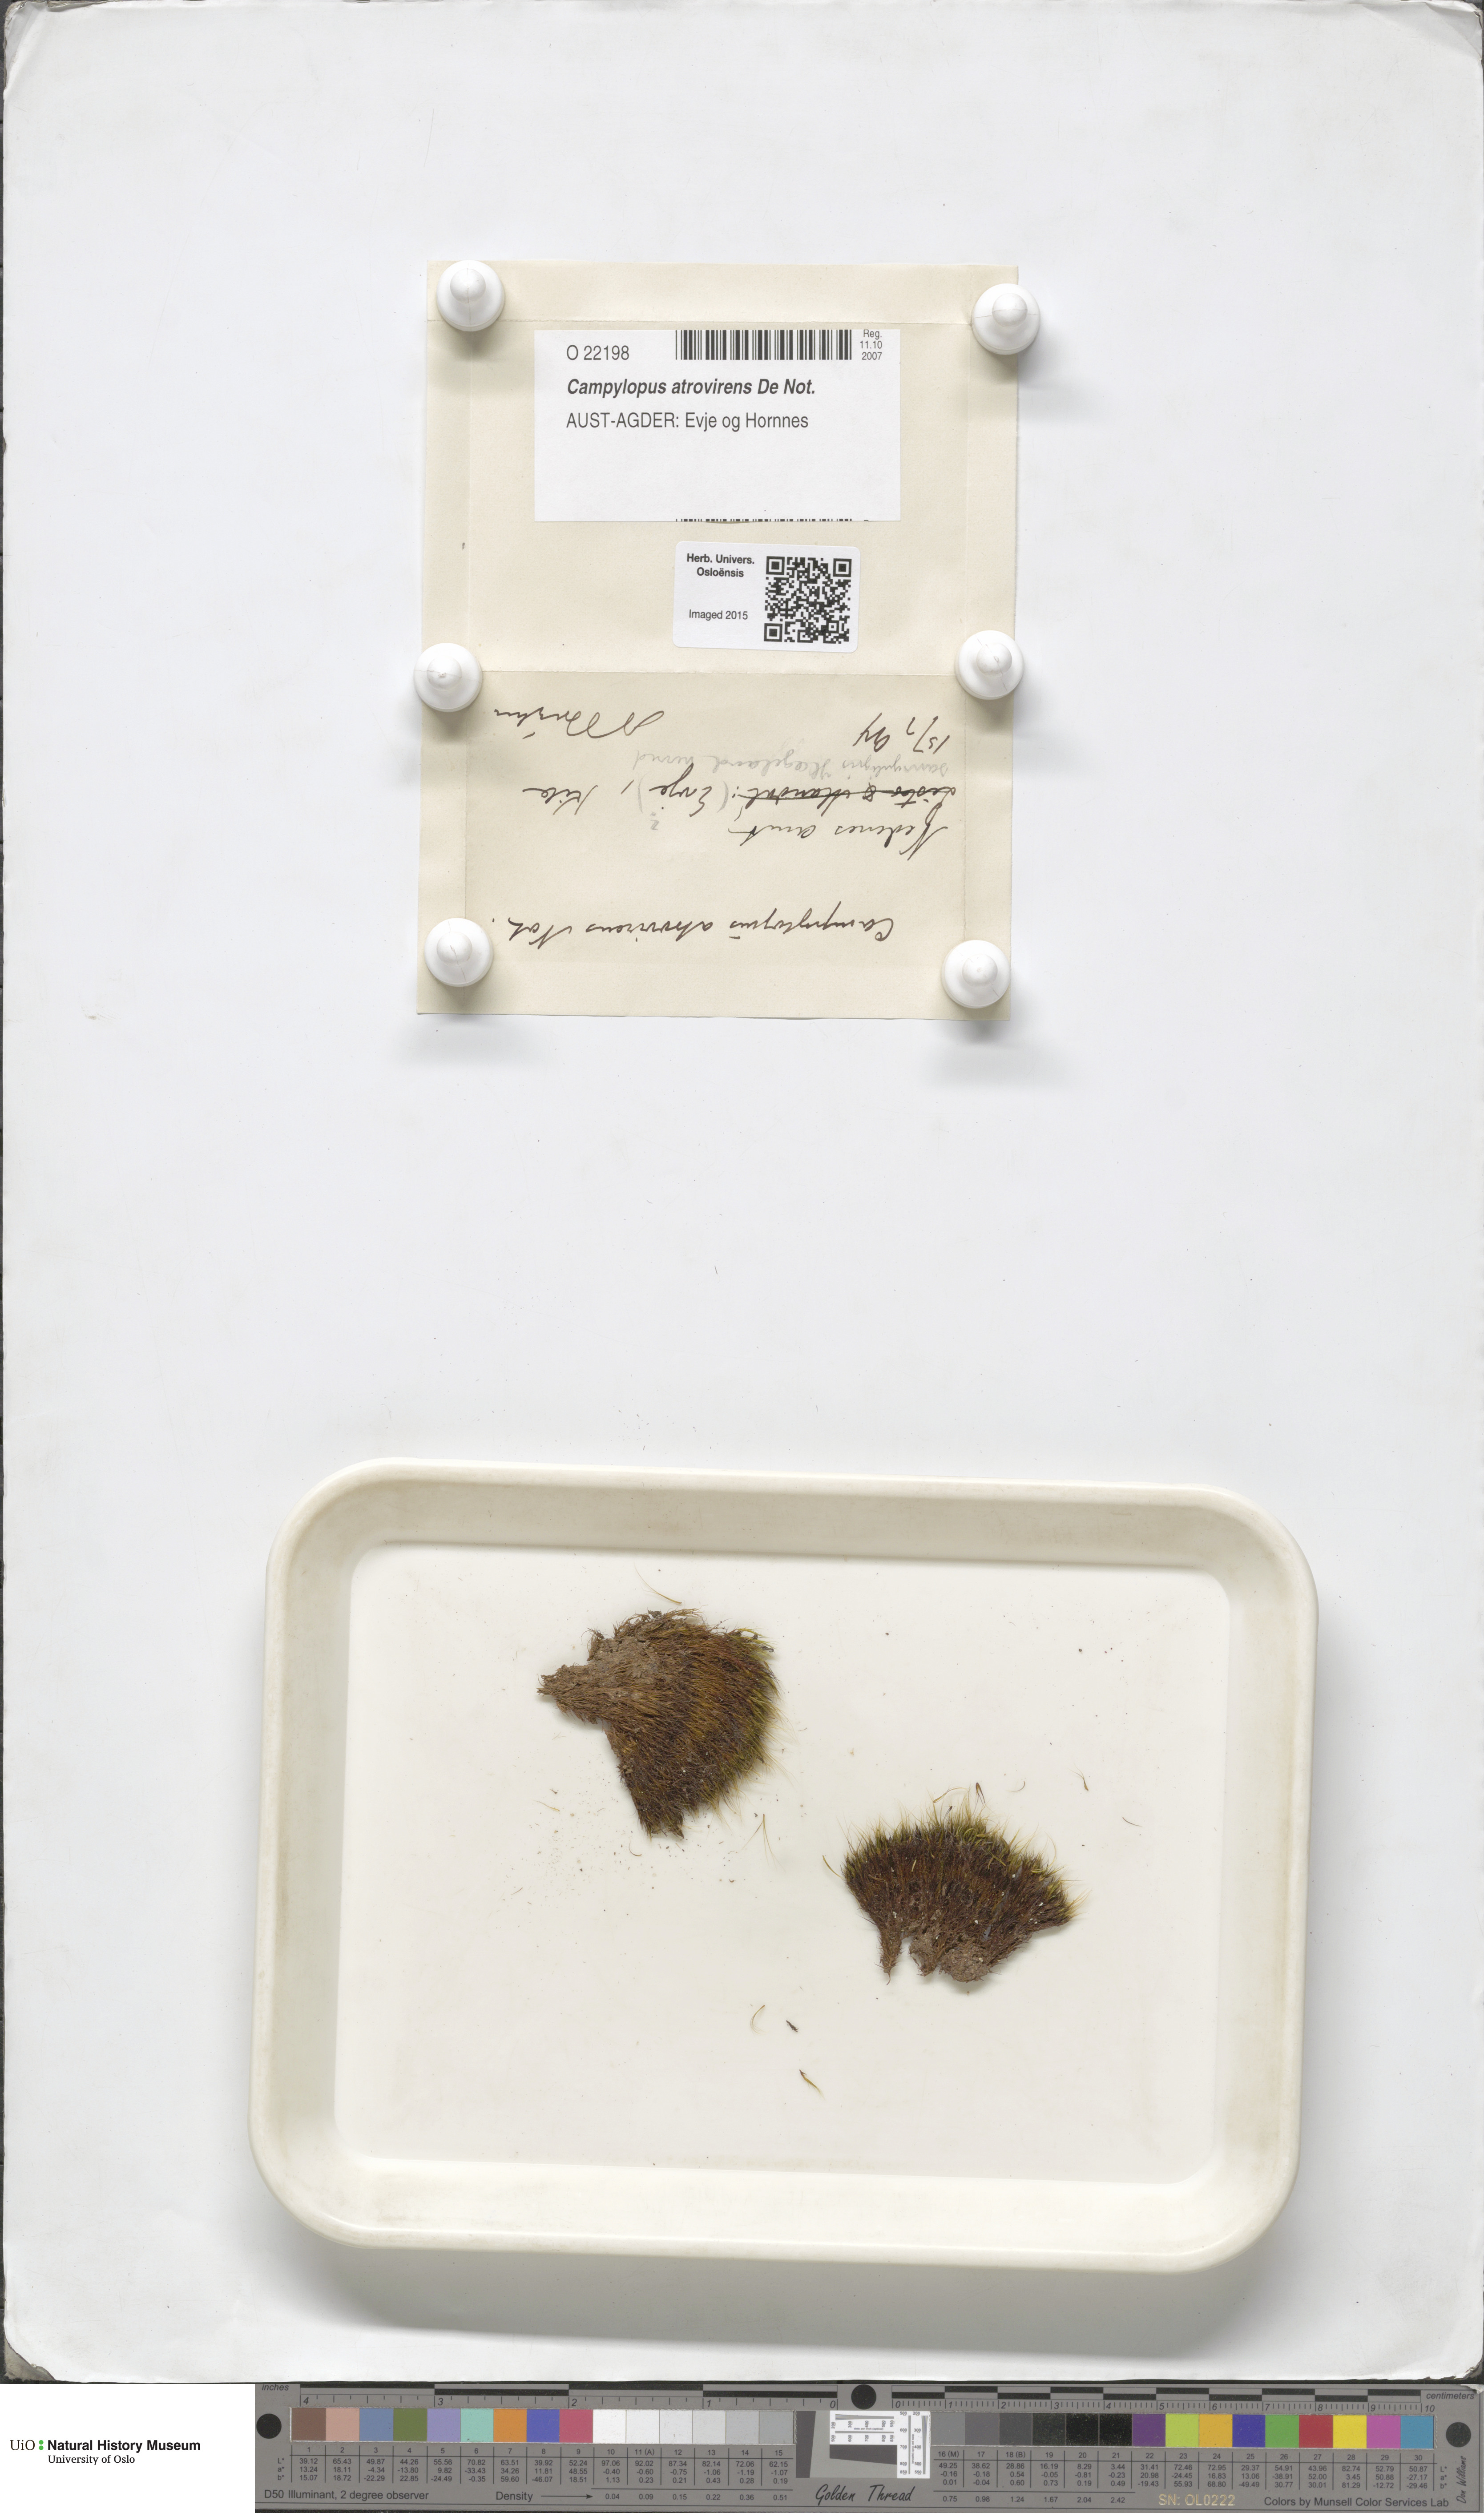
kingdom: Plantae
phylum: Bryophyta
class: Bryopsida
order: Dicranales
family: Leucobryaceae
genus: Campylopus
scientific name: Campylopus atrovirens
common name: Bristly swan-neck moss
